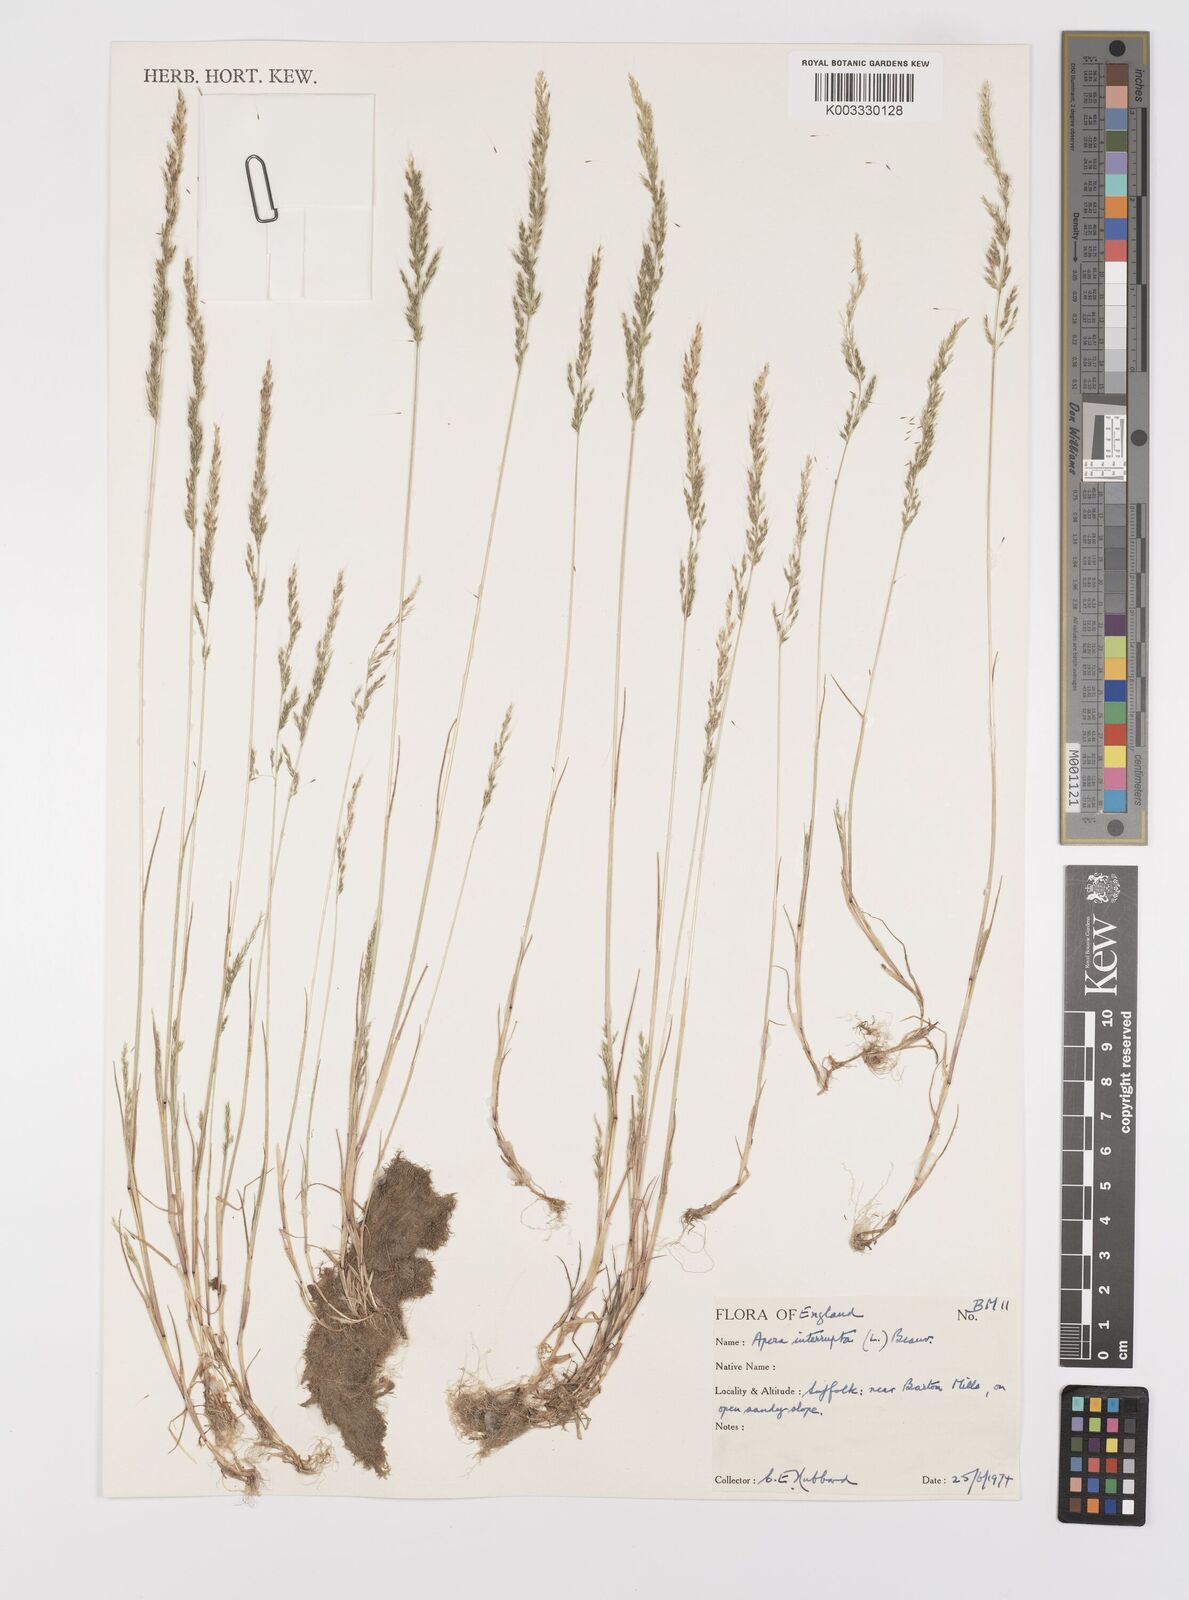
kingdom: Plantae
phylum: Tracheophyta
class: Liliopsida
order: Poales
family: Poaceae
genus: Apera
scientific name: Apera interrupta
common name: Dense silky-bent
